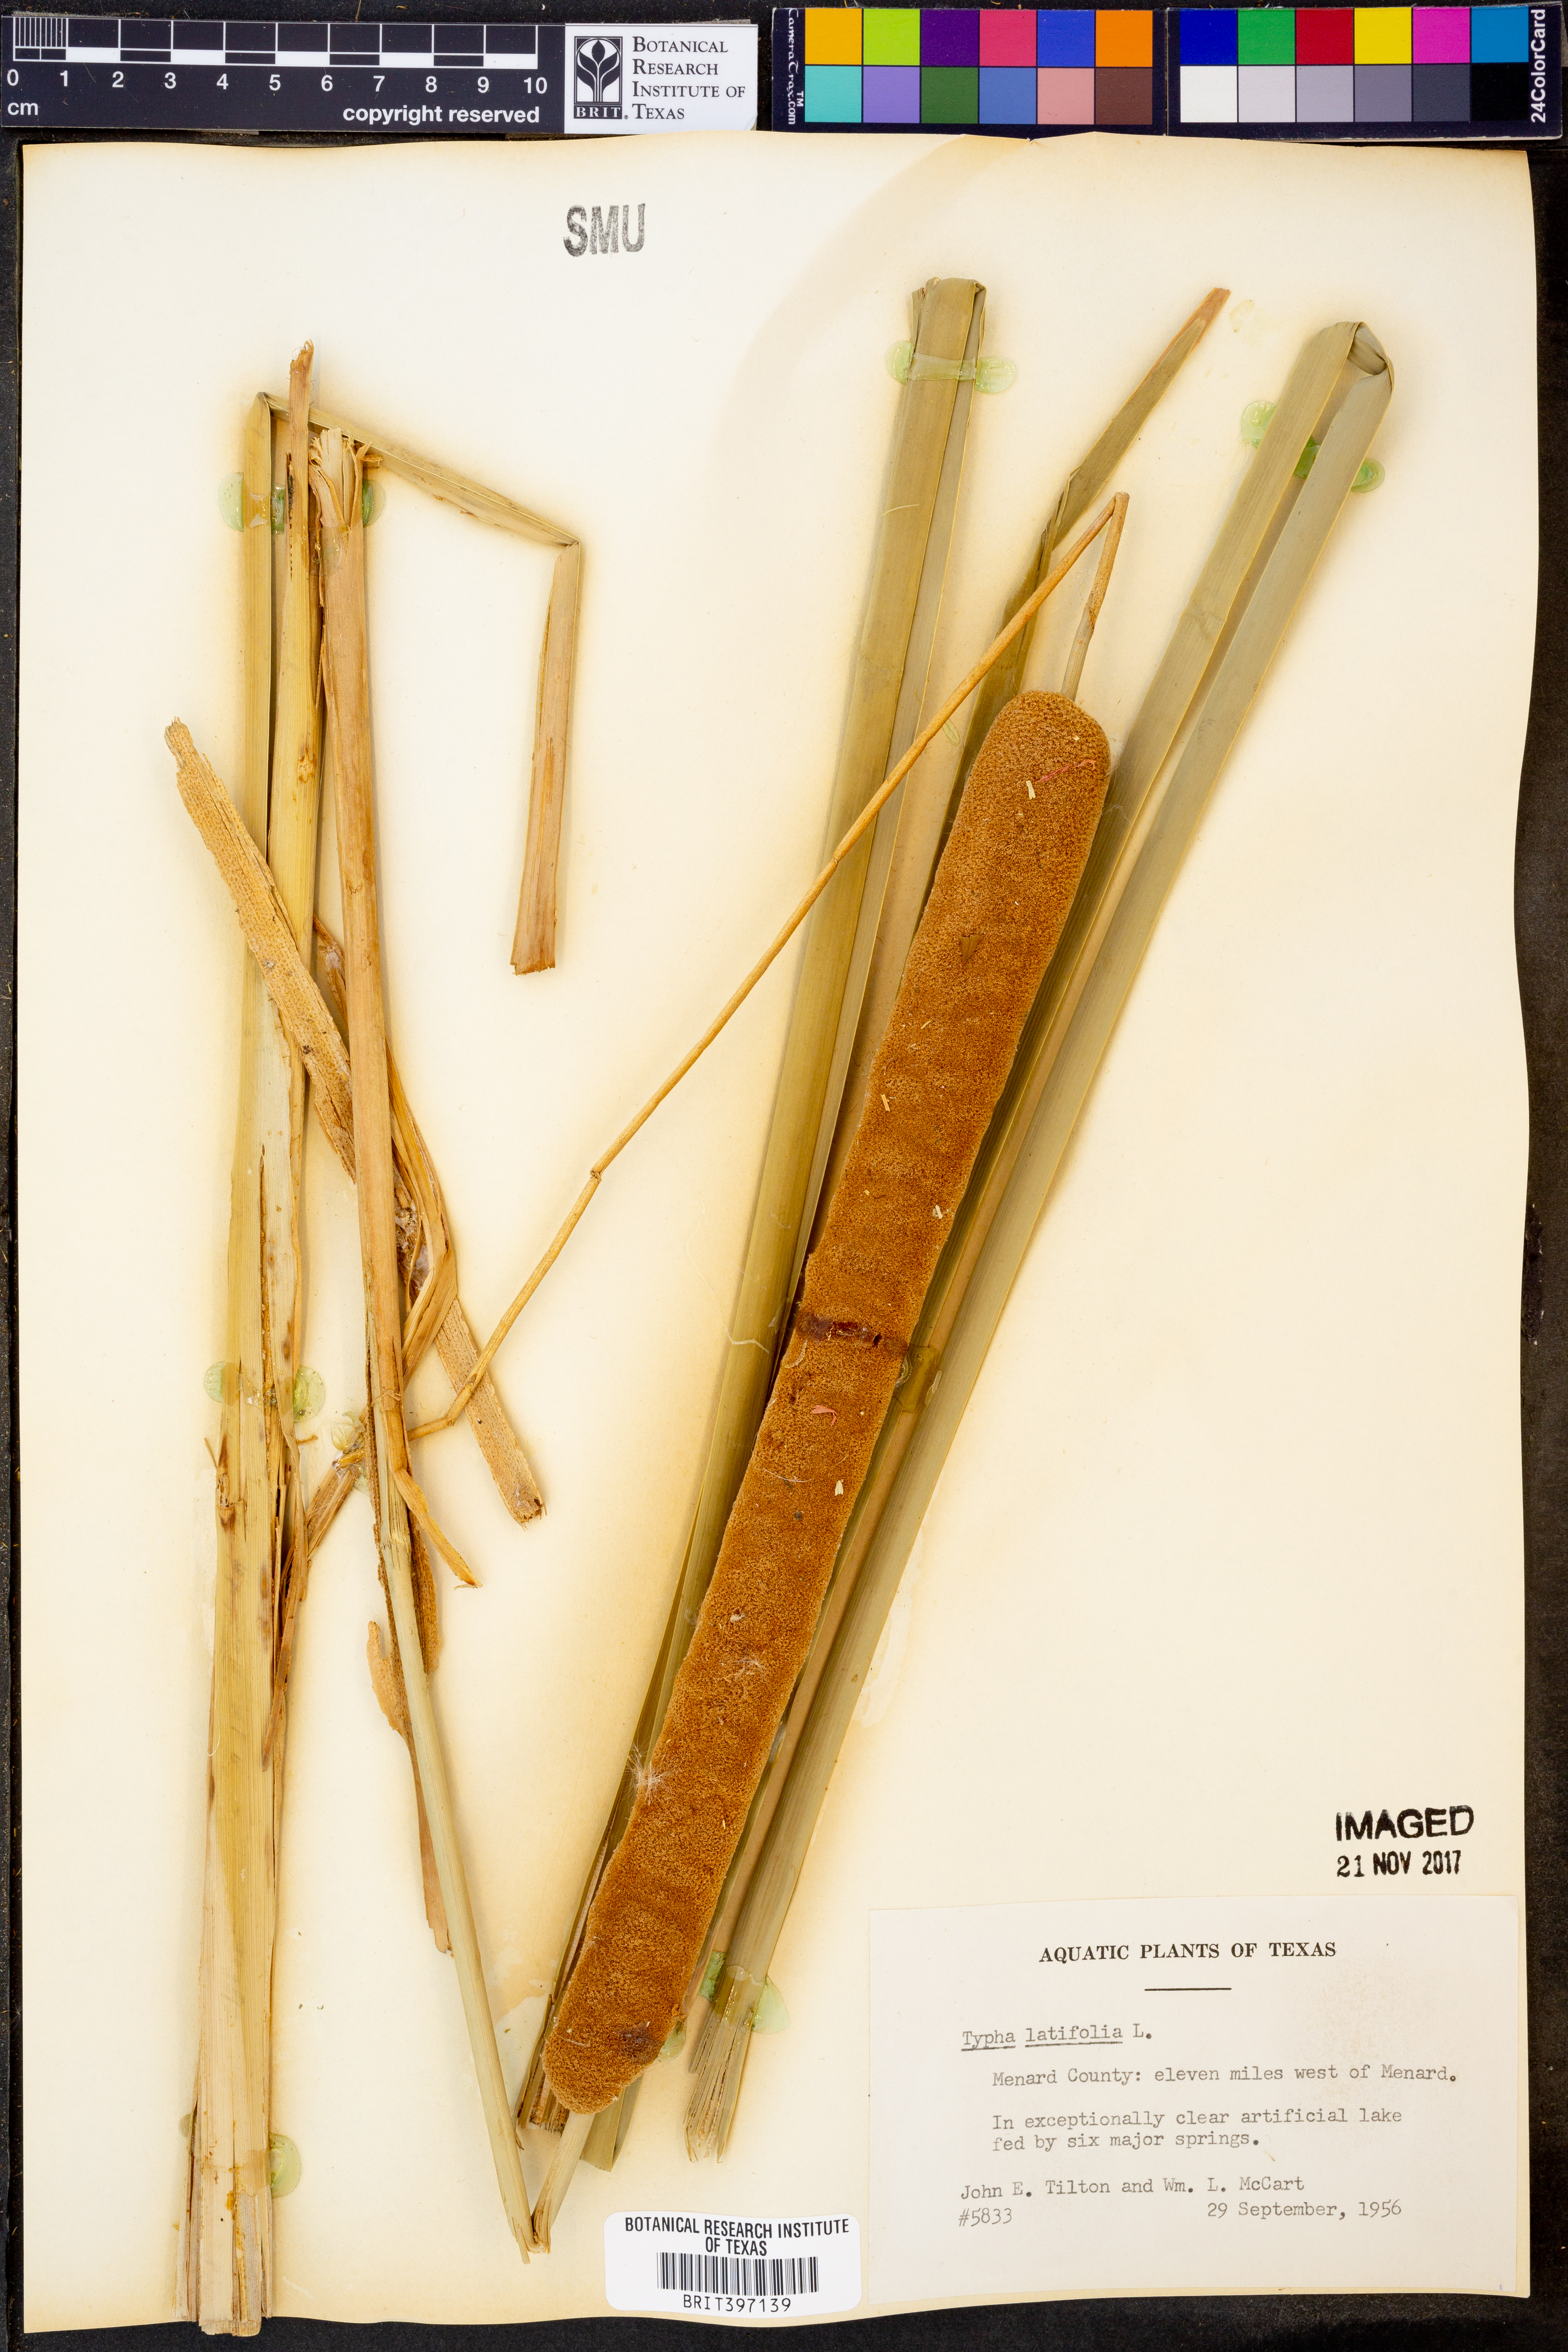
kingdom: Plantae
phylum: Tracheophyta
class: Liliopsida
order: Poales
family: Typhaceae
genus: Typha
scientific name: Typha latifolia
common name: Broadleaf cattail
